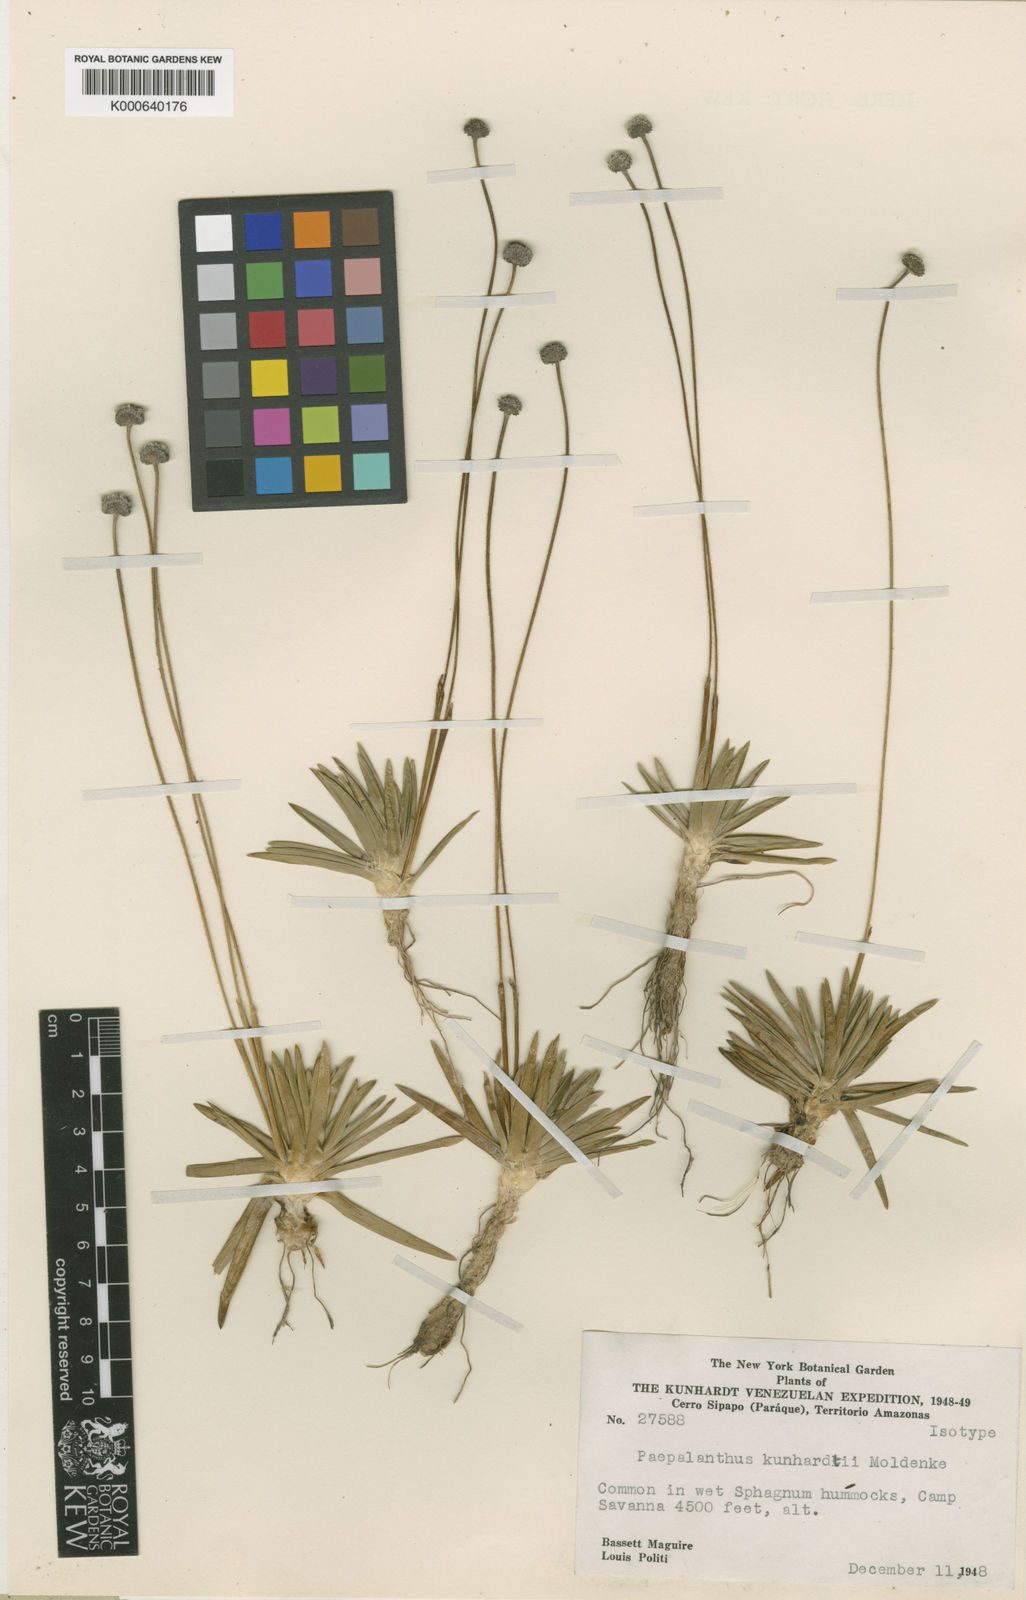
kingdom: Plantae
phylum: Tracheophyta
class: Liliopsida
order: Poales
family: Eriocaulaceae
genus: Paepalanthus
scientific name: Paepalanthus kunhardtii
